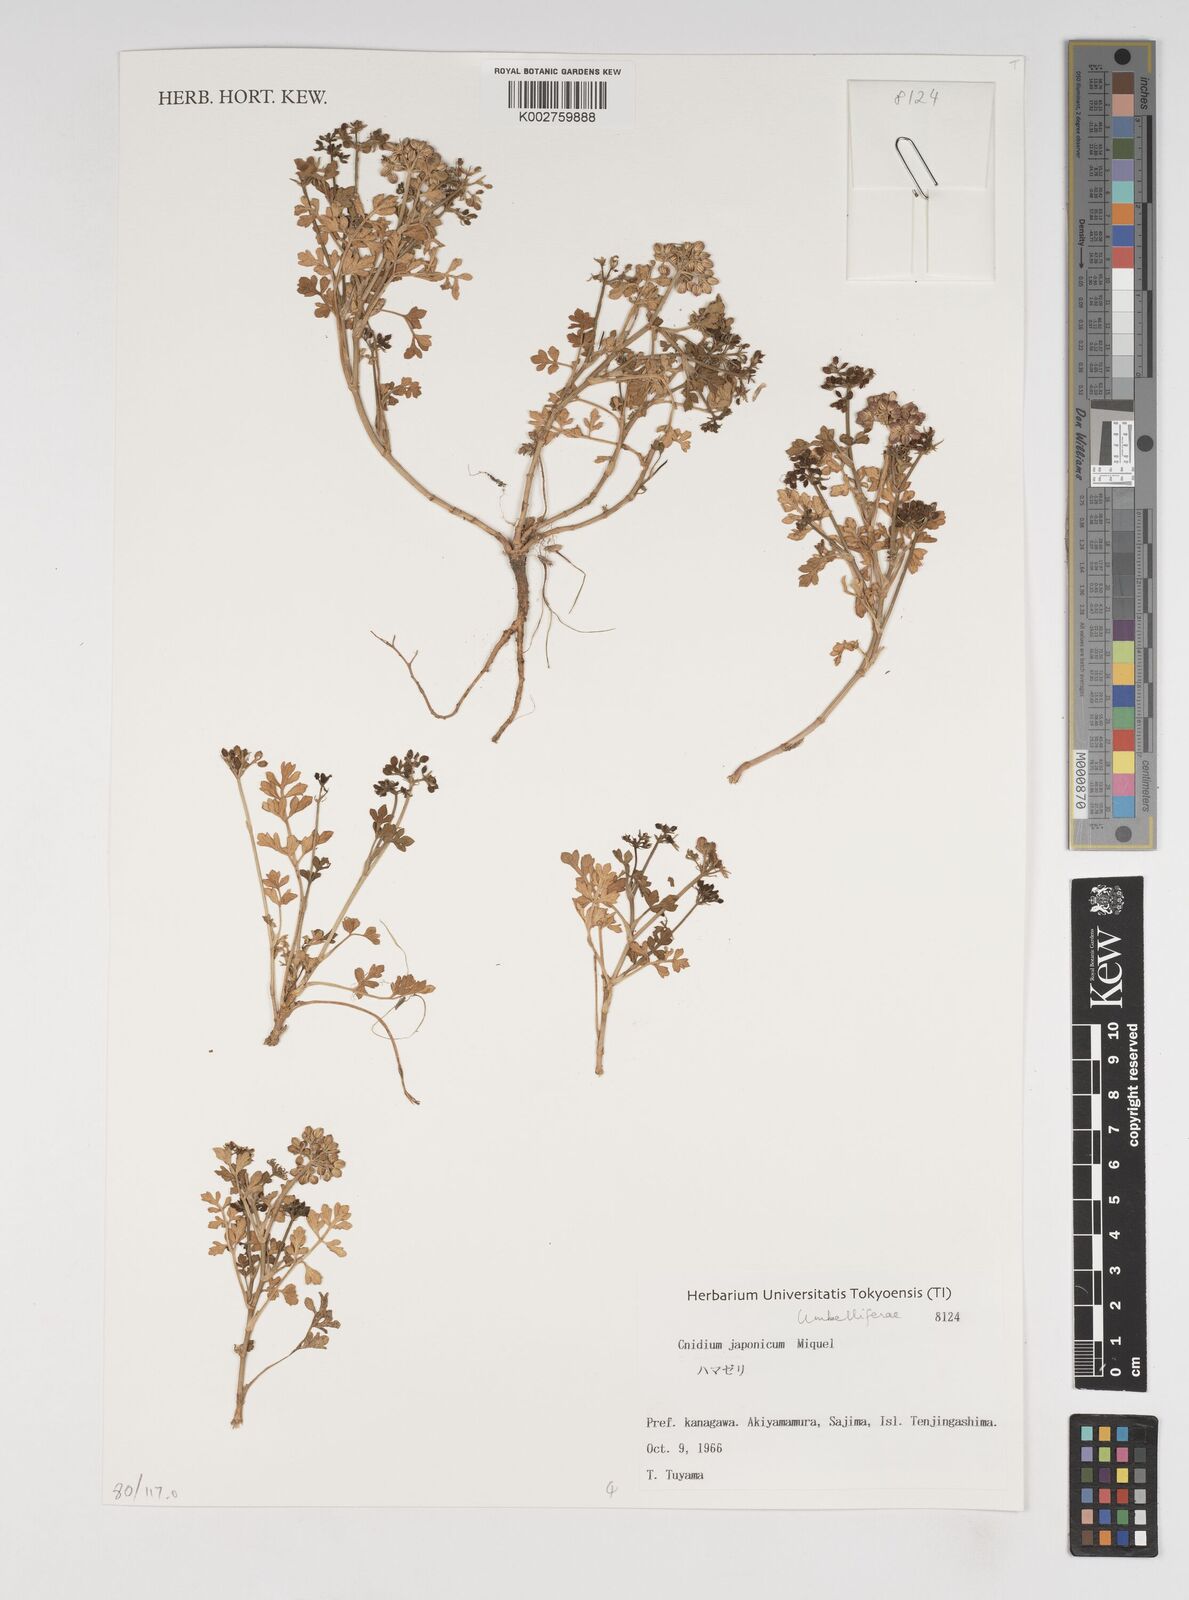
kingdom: Plantae
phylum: Tracheophyta
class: Magnoliopsida
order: Apiales
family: Apiaceae
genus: Cnidium
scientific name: Cnidium japonicum
